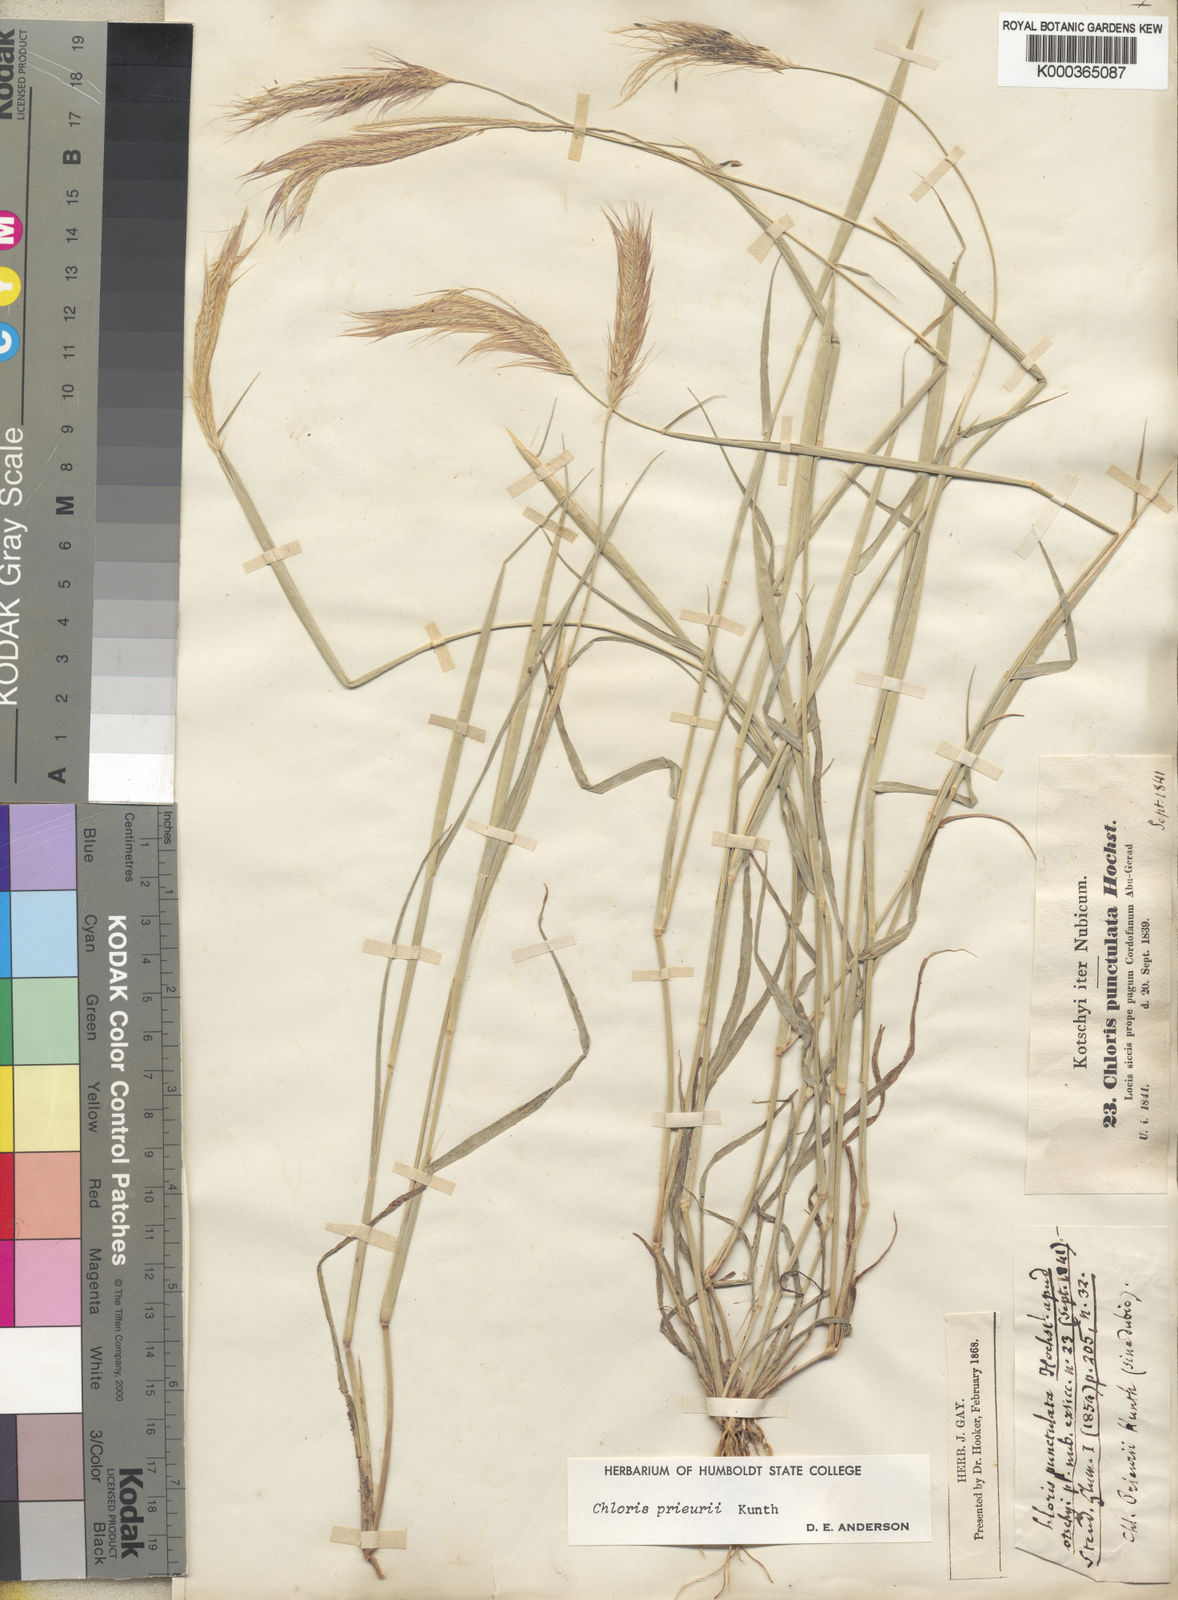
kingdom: Plantae
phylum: Tracheophyta
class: Liliopsida
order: Poales
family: Poaceae
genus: Enteropogon
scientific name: Enteropogon prieurii
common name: Prieur's umbrellagrass
